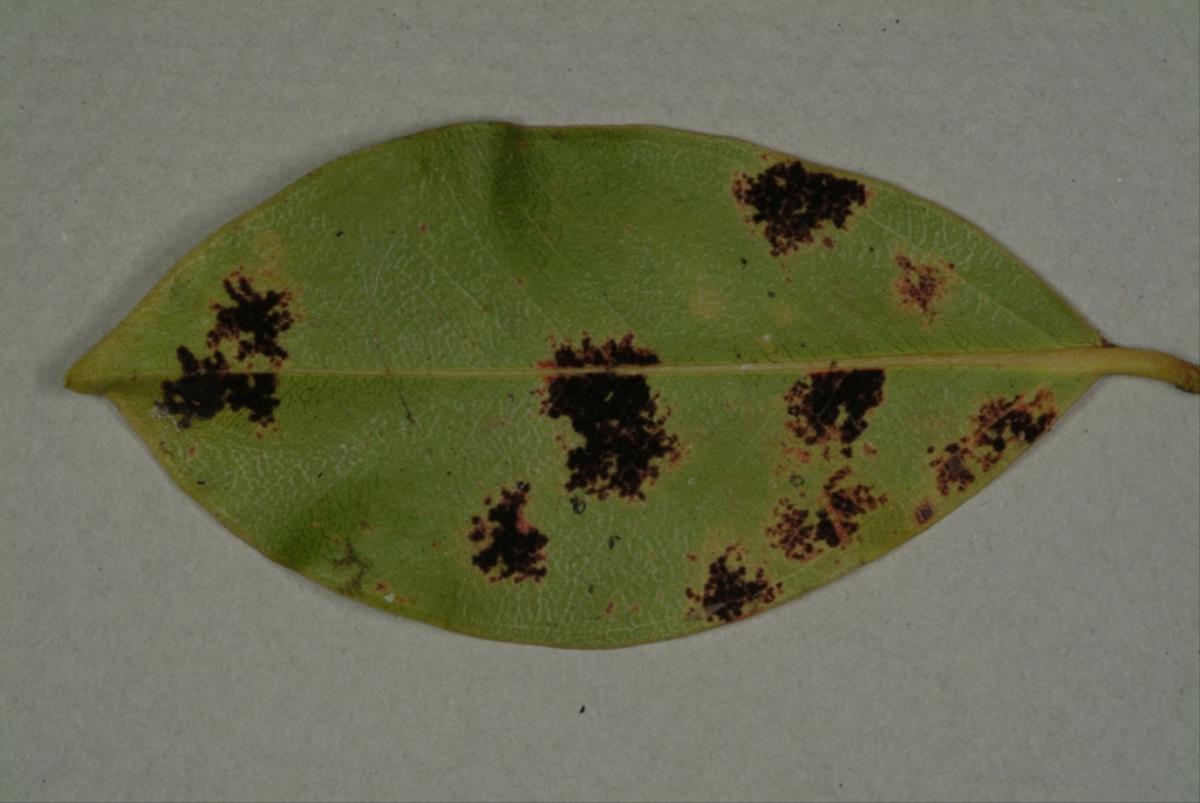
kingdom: Fungi
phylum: Ascomycota
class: Dothideomycetes
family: Meliolinaceae
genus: Meliolina
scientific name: Meliolina cookii
